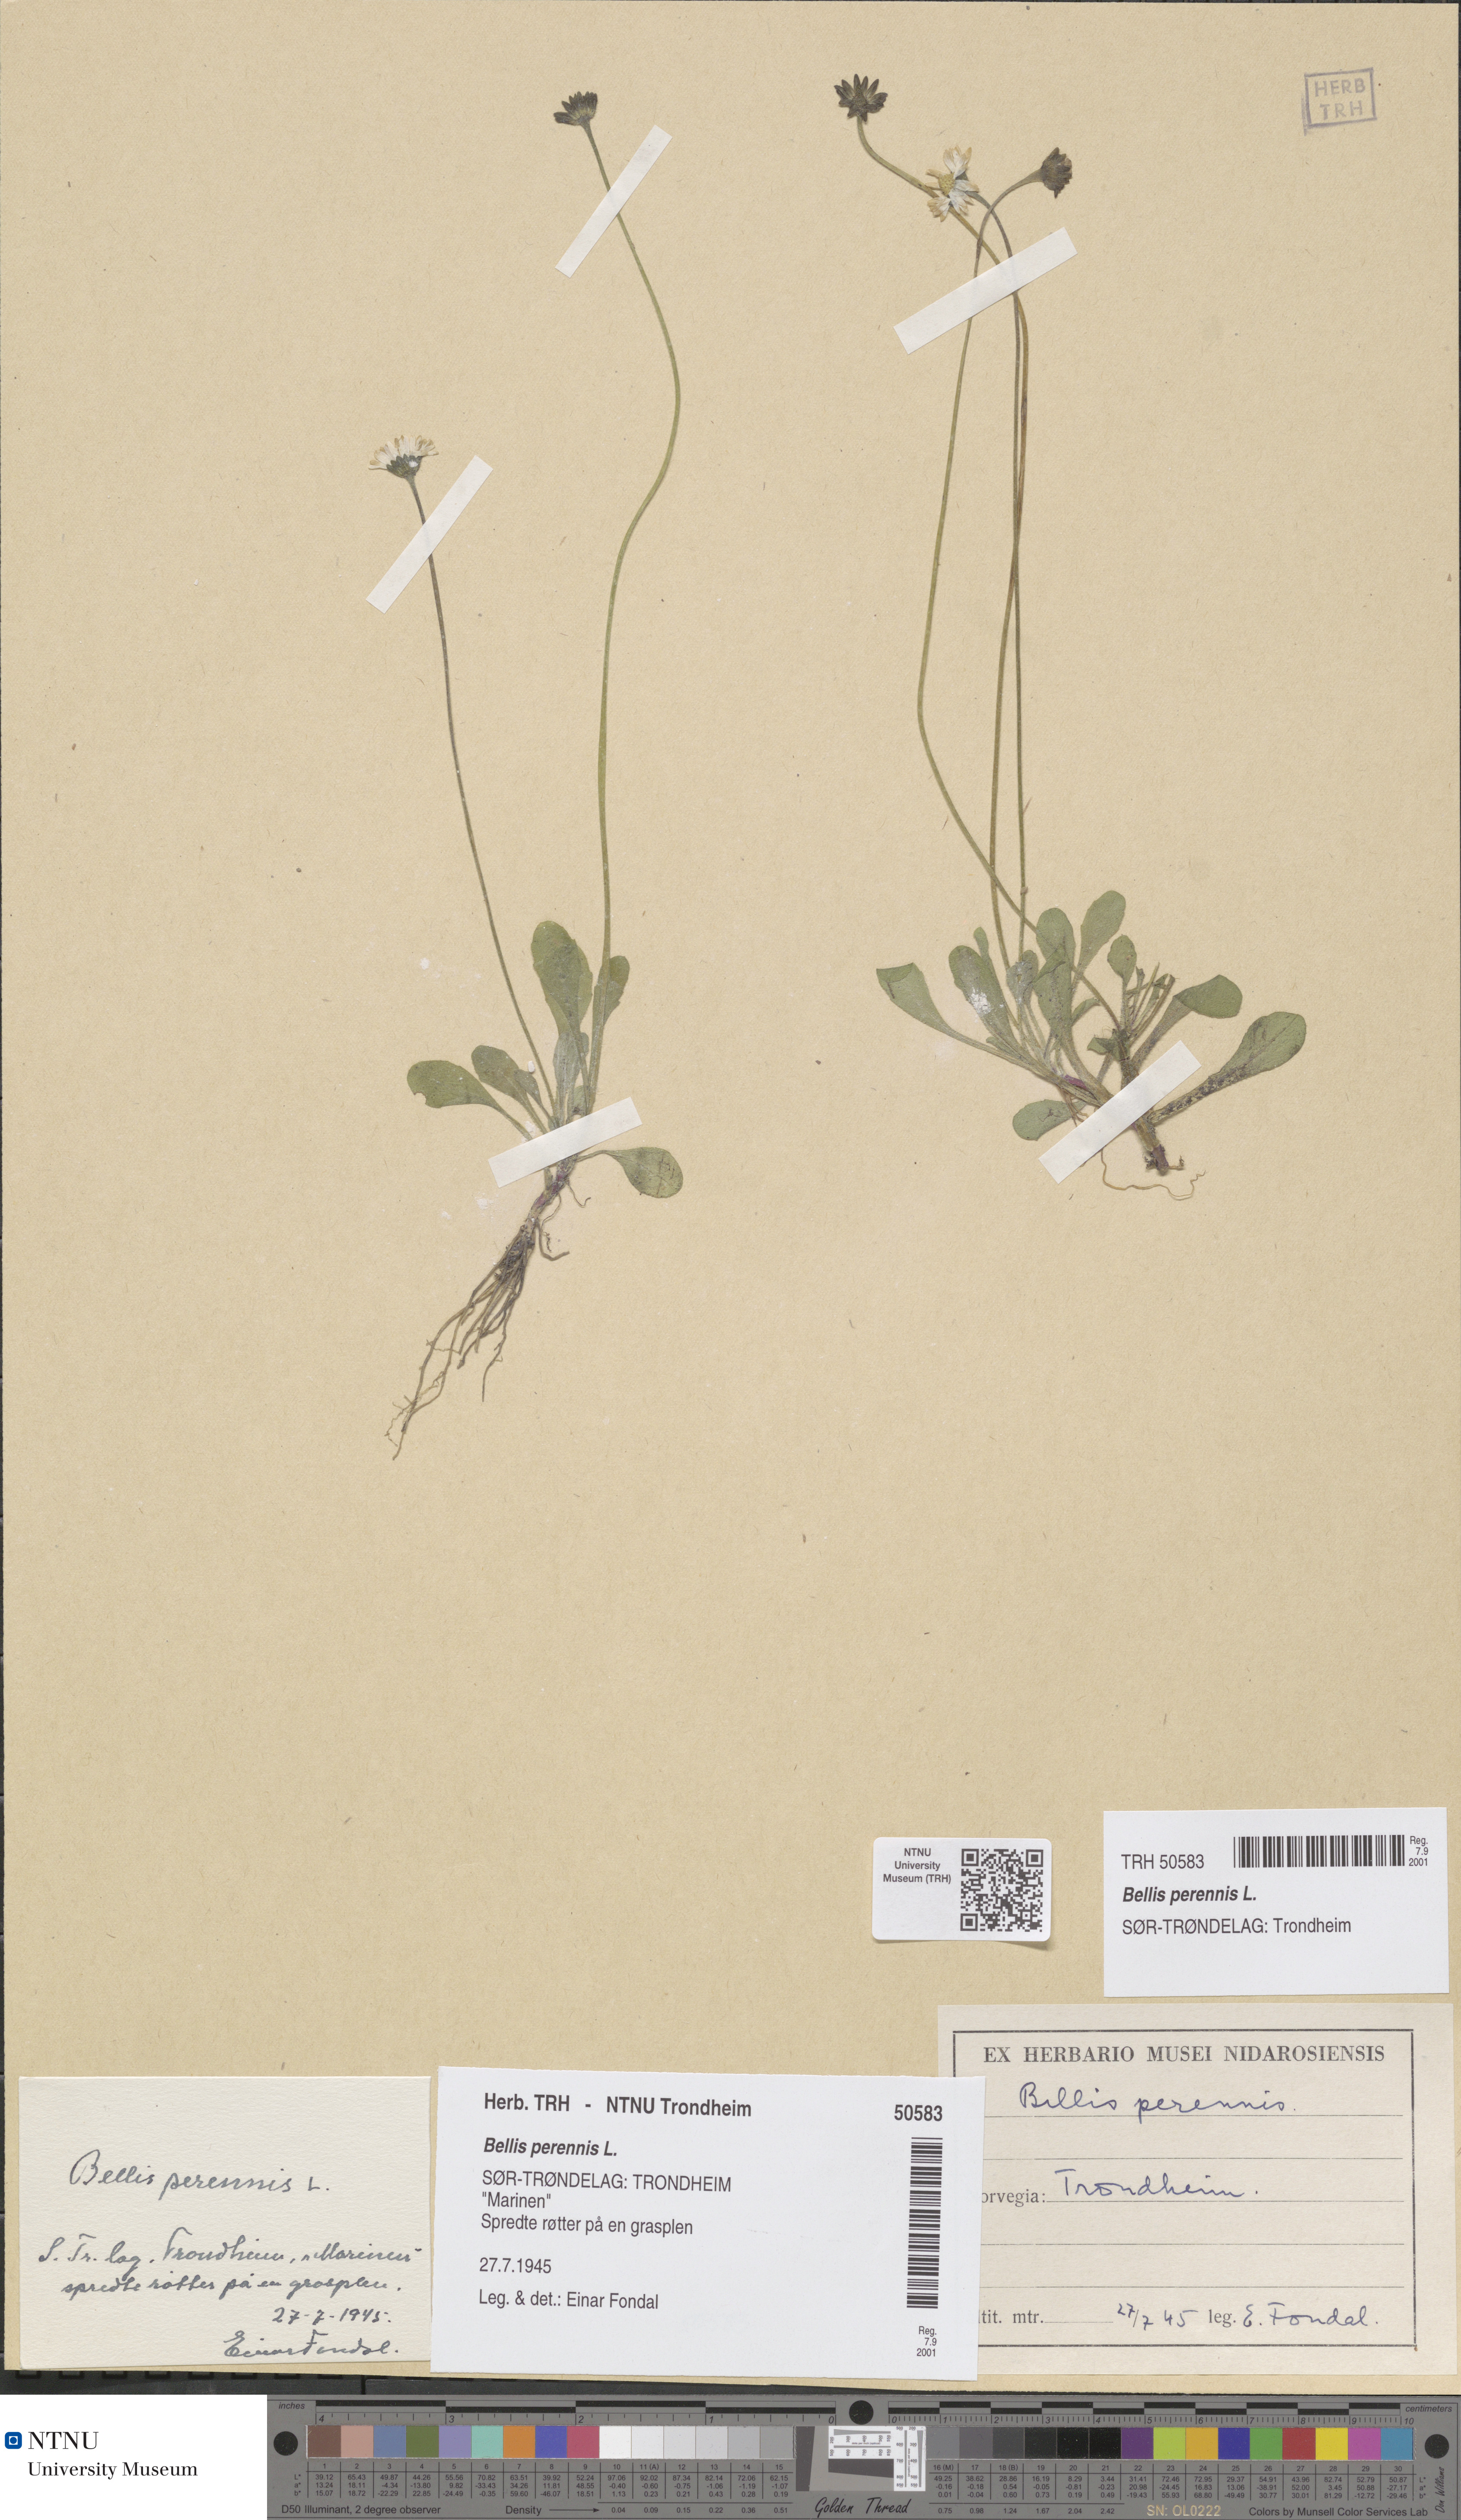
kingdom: Plantae
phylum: Tracheophyta
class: Magnoliopsida
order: Asterales
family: Asteraceae
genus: Bellis
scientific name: Bellis perennis
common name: Lawndaisy
